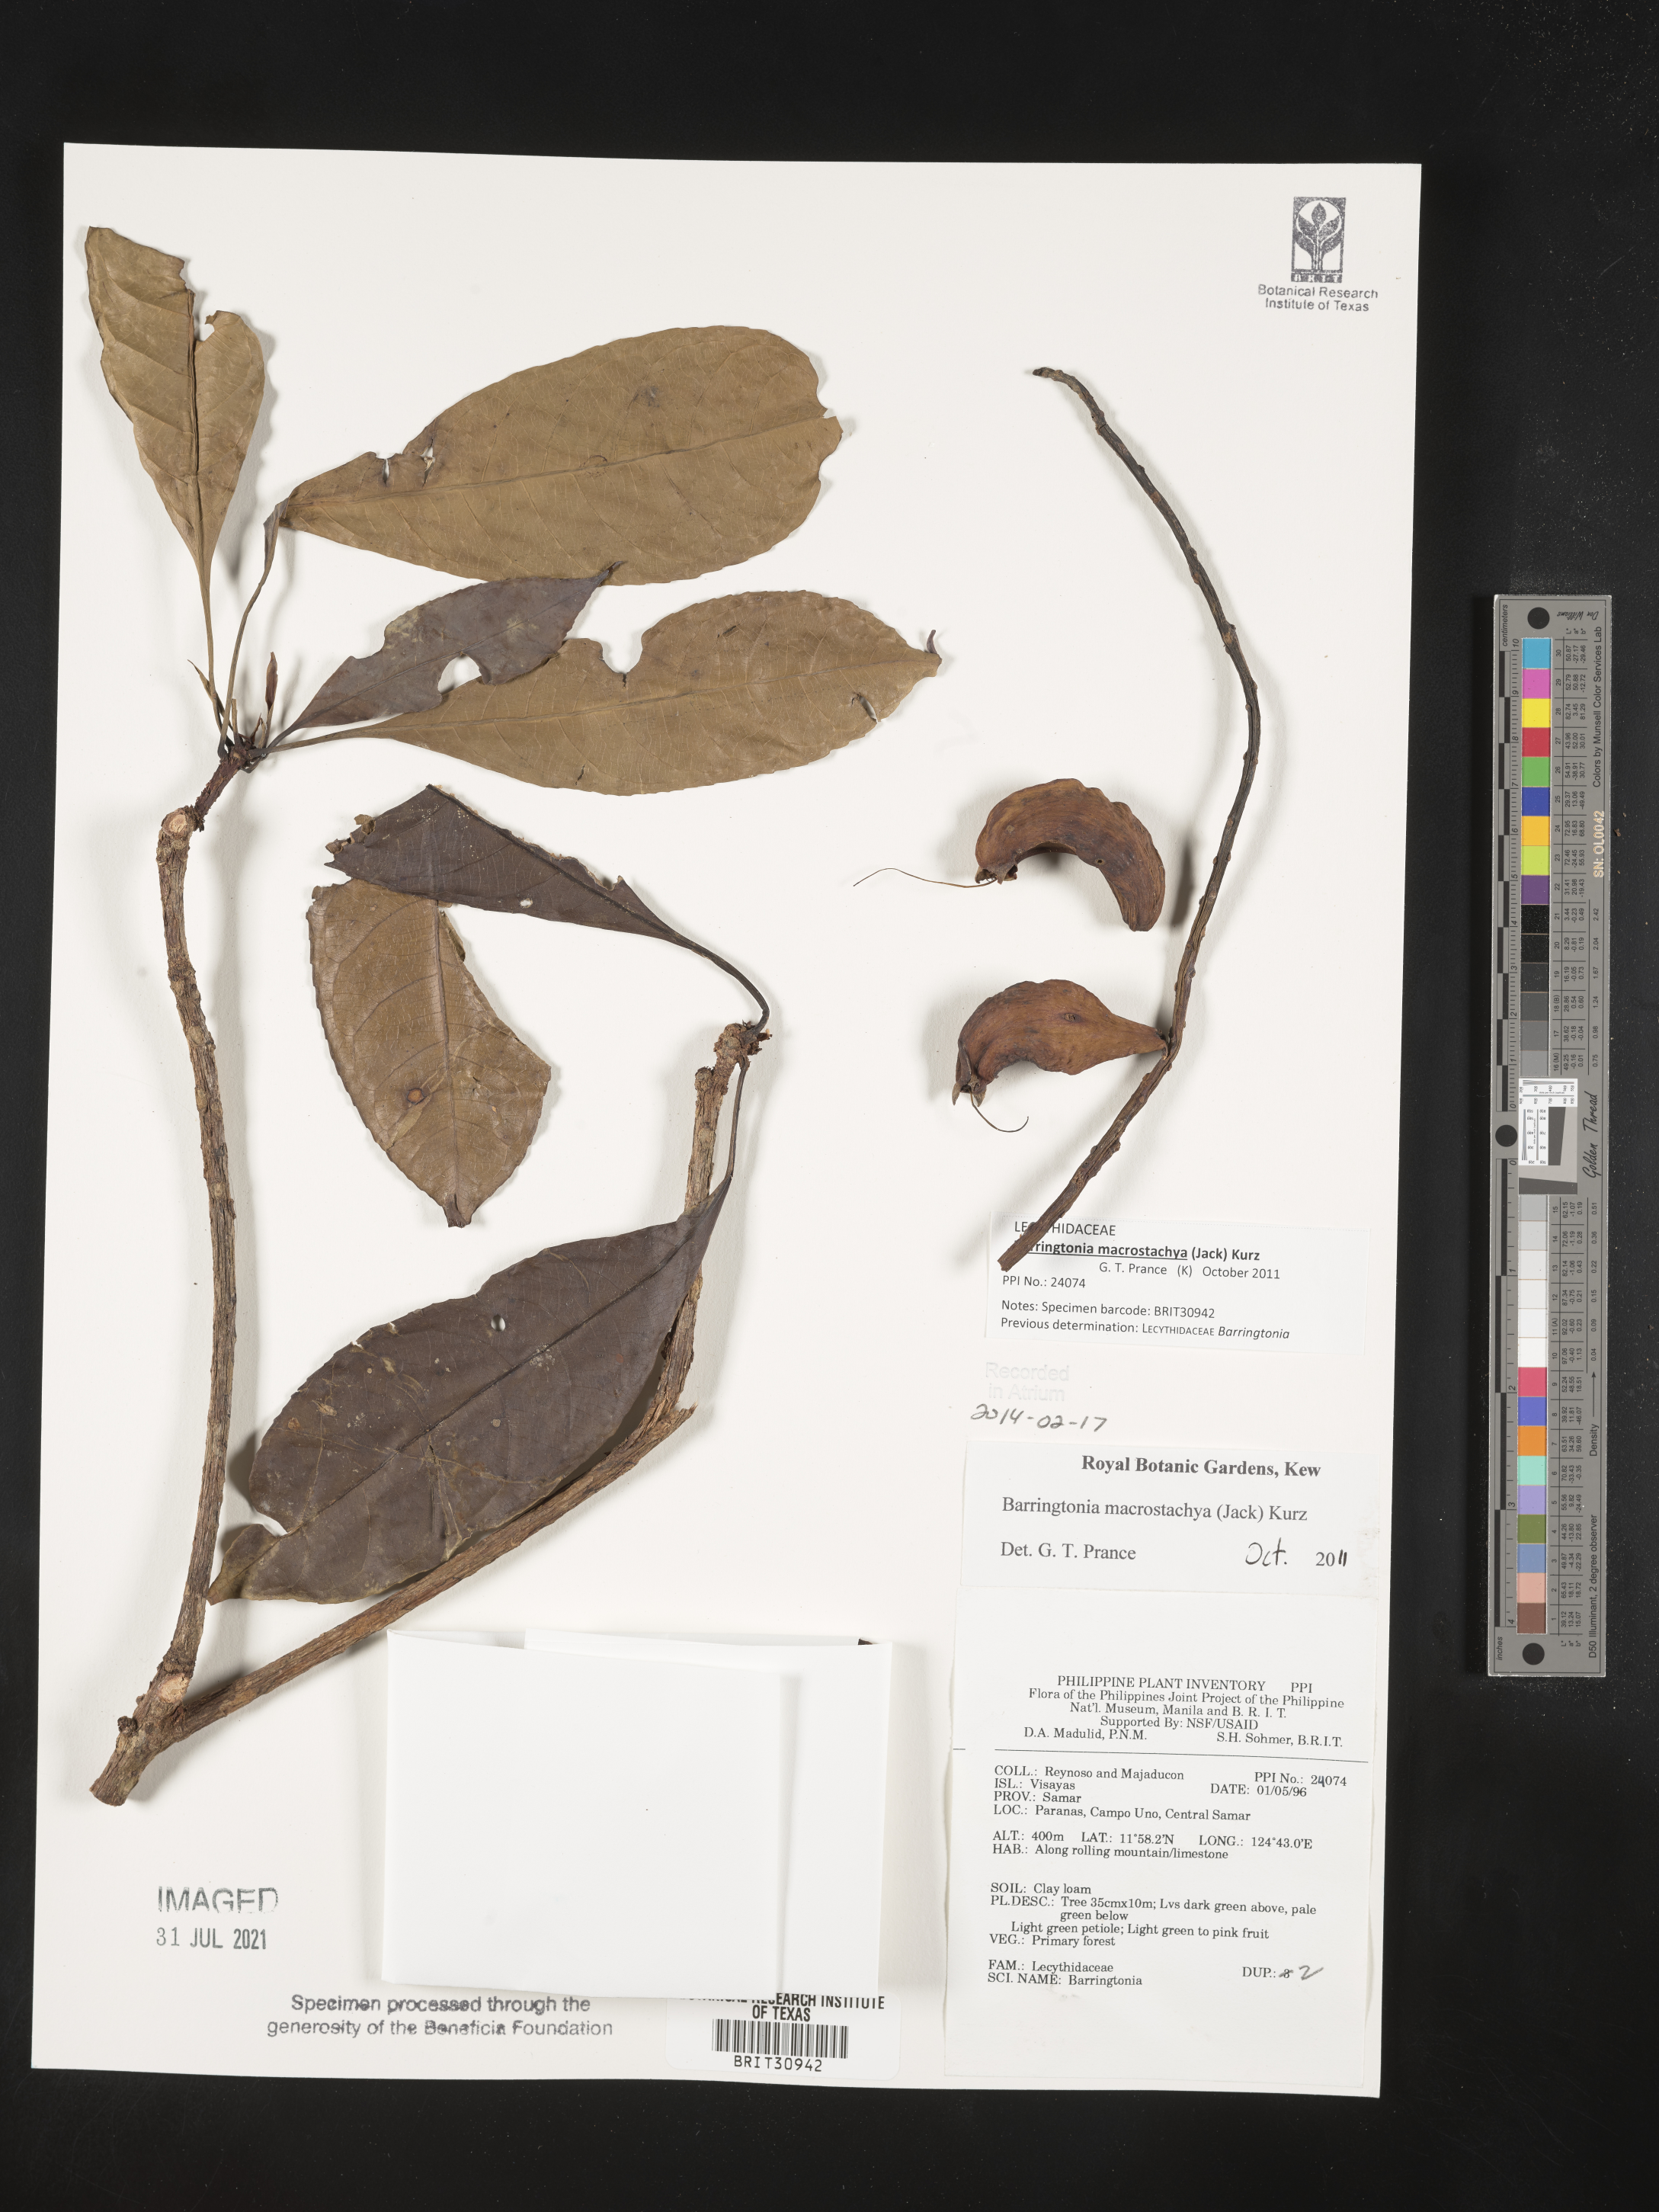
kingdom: Plantae
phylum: Tracheophyta
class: Magnoliopsida
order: Ericales
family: Lecythidaceae
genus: Barringtonia
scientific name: Barringtonia
